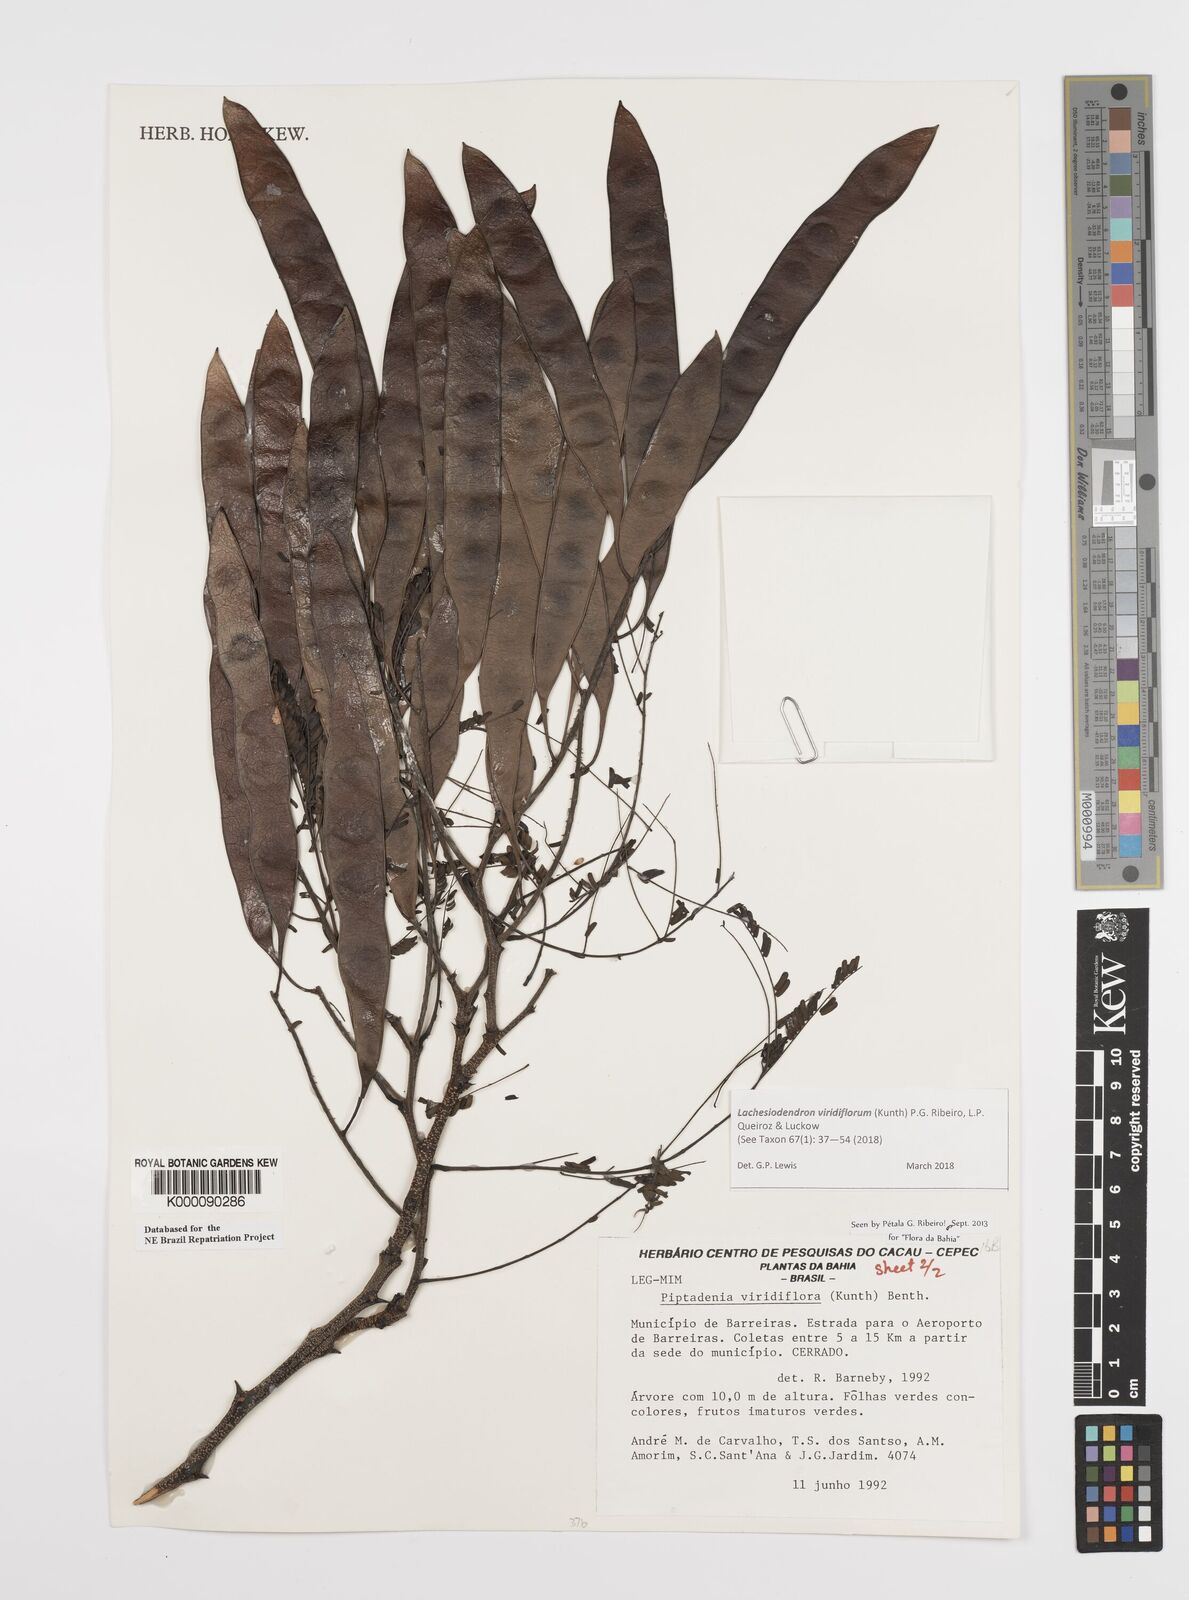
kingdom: Plantae
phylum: Tracheophyta
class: Magnoliopsida
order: Fabales
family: Fabaceae
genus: Lachesiodendron
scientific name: Lachesiodendron viridiflorum
